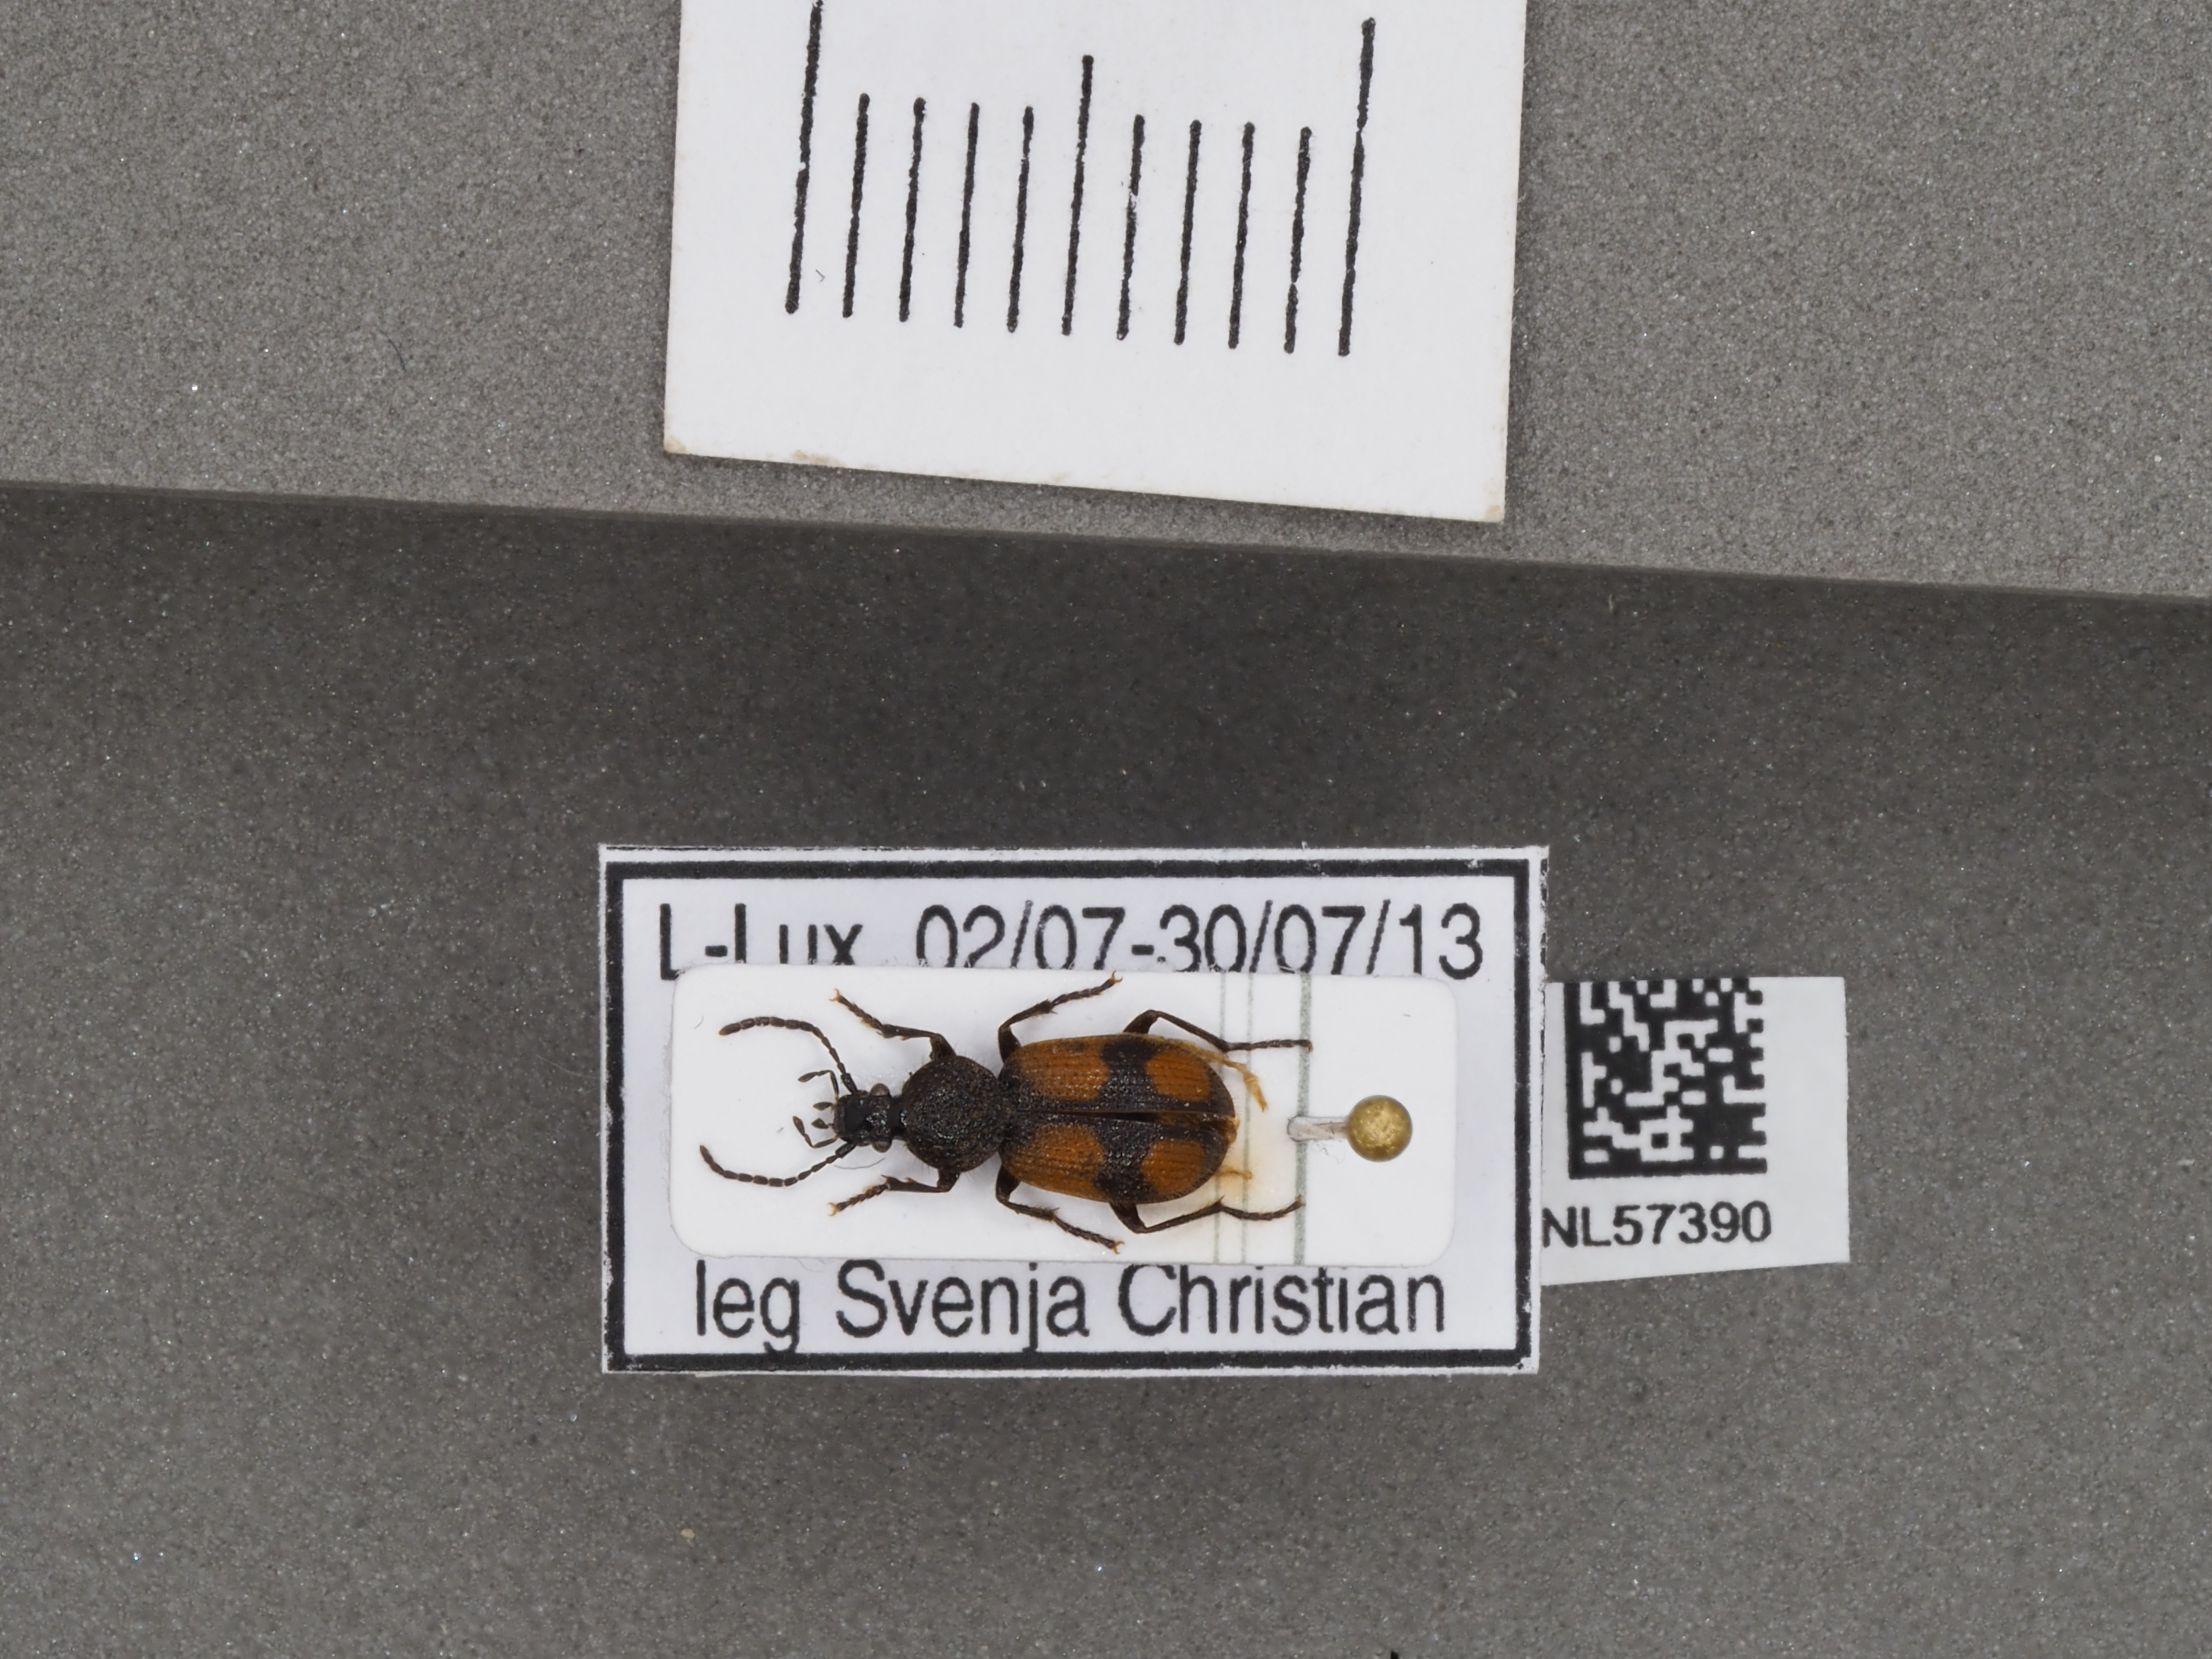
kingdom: Animalia
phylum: Arthropoda
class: Insecta
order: Coleoptera
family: Carabidae
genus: Panagaeus
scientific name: Panagaeus bipustulatus
